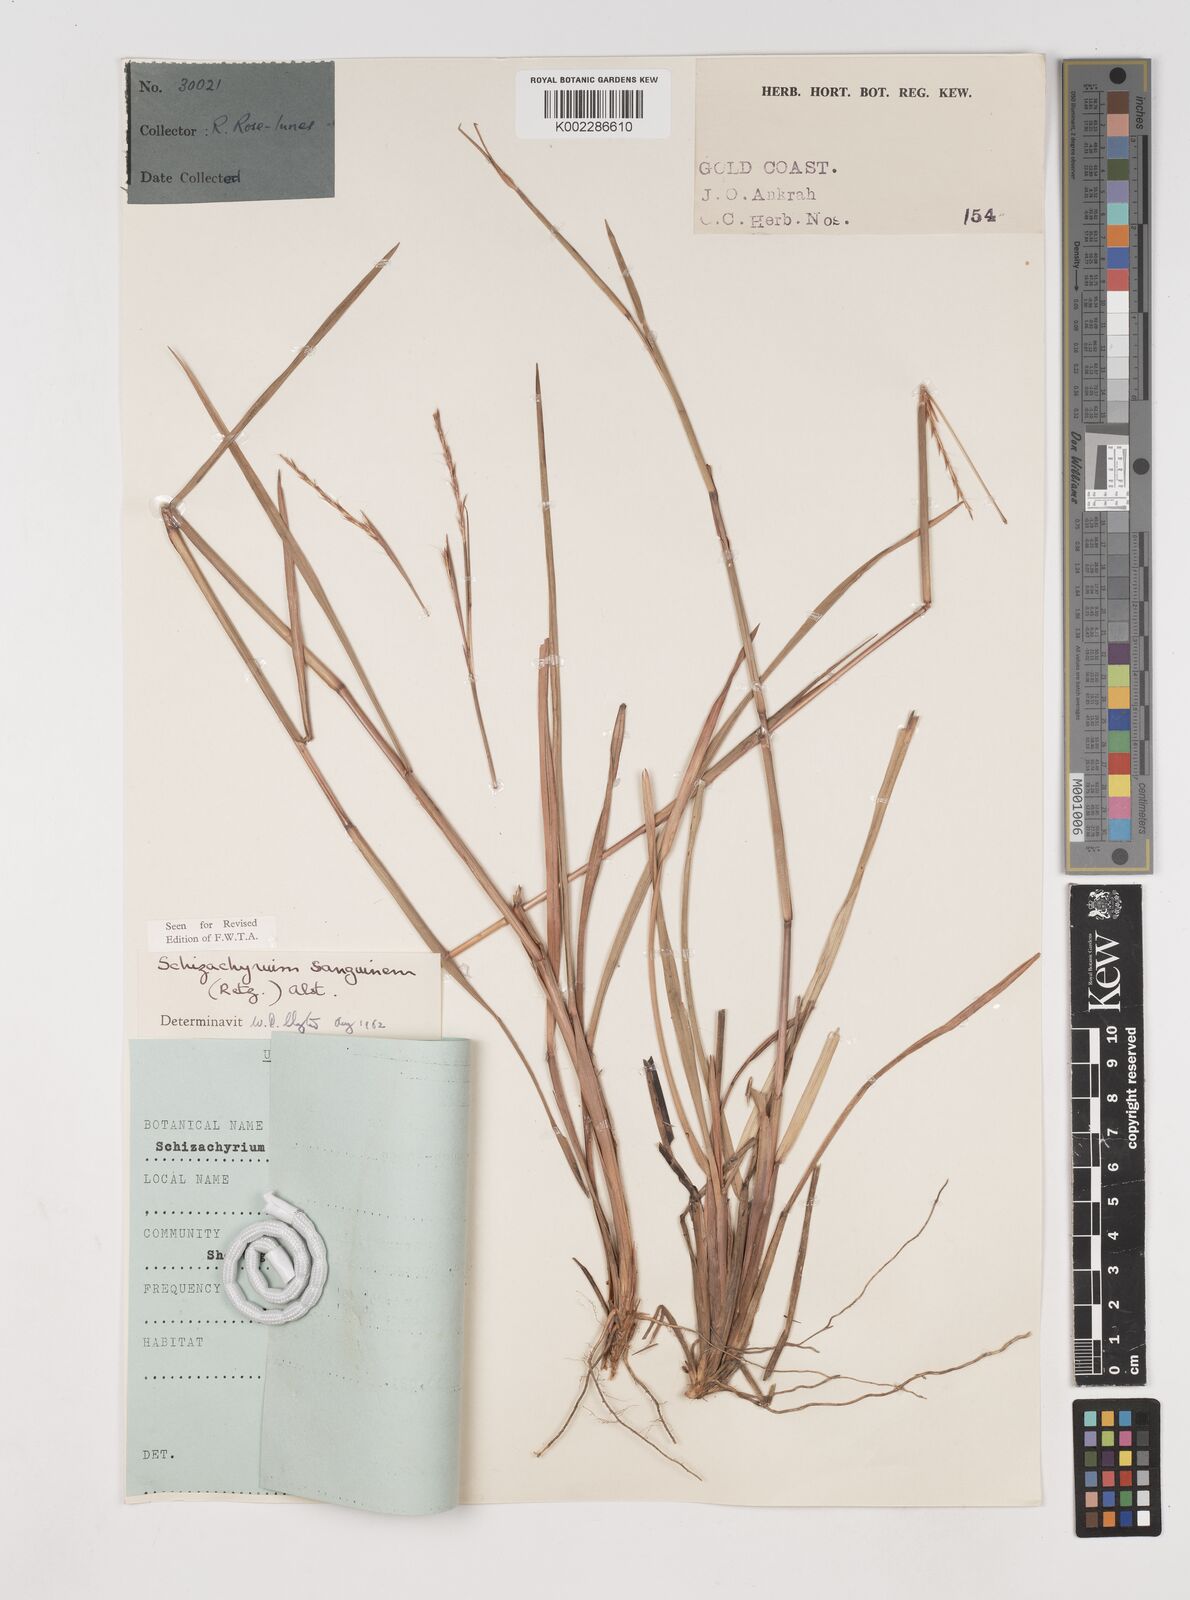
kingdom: Plantae
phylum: Tracheophyta
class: Liliopsida
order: Poales
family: Poaceae
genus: Schizachyrium
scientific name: Schizachyrium sanguineum
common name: Crimson bluestem
